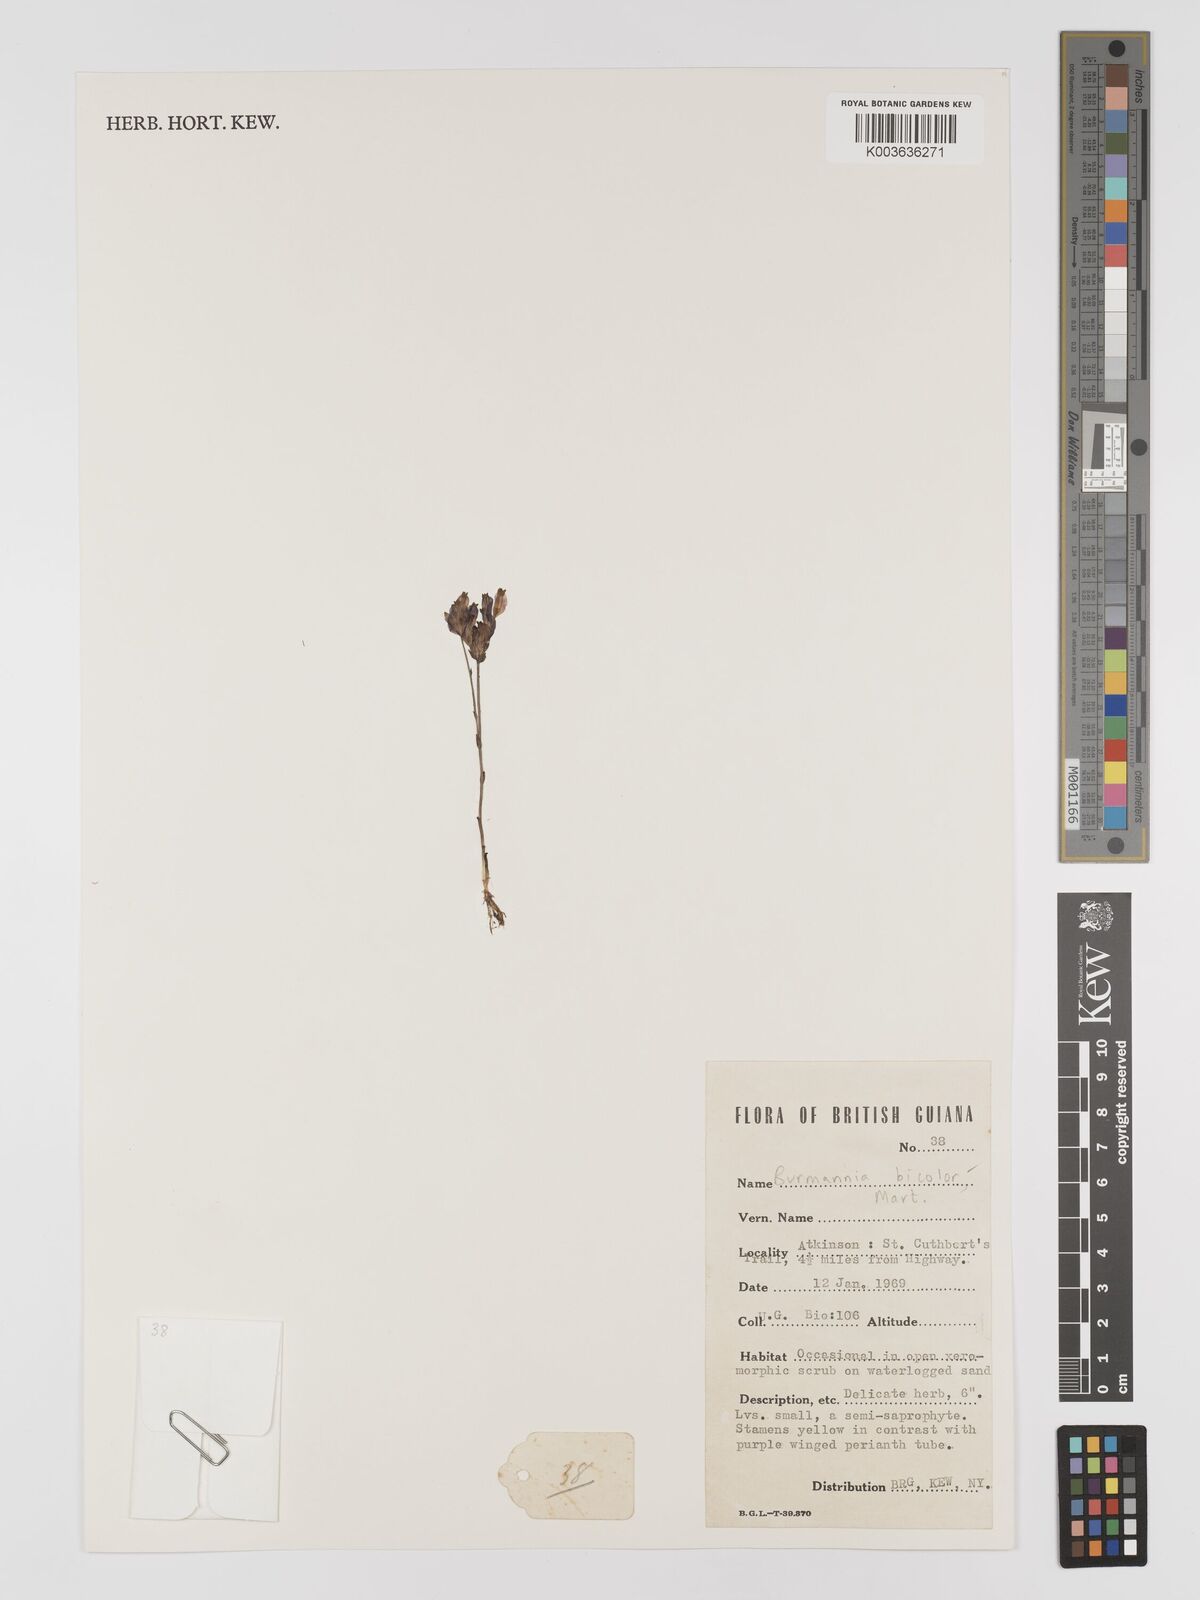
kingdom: Plantae
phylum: Tracheophyta
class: Liliopsida
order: Dioscoreales
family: Burmanniaceae
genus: Burmannia
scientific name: Burmannia bicolor
